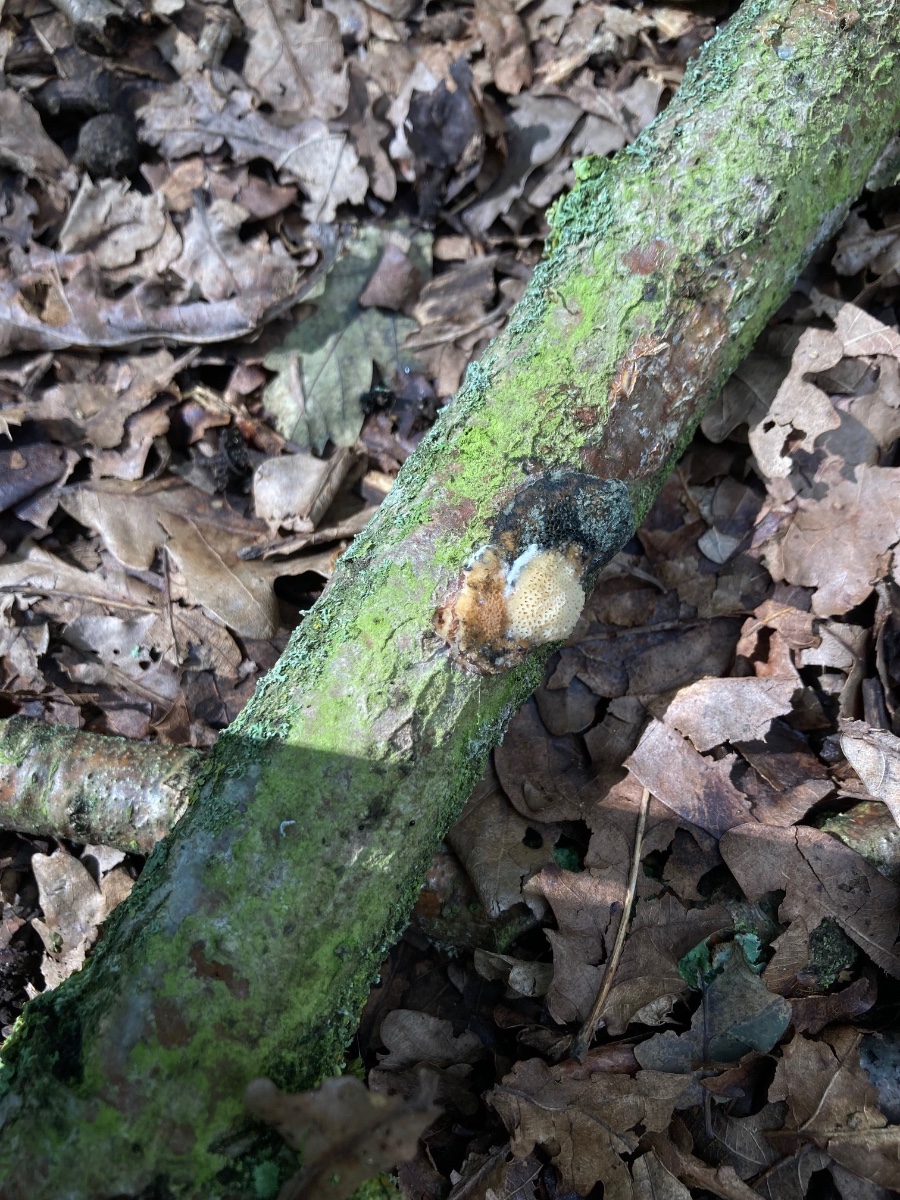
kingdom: Fungi
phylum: Basidiomycota
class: Agaricomycetes
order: Polyporales
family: Polyporaceae
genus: Szczepkamyces
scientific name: Szczepkamyces campestris
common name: hasselporesvamp
